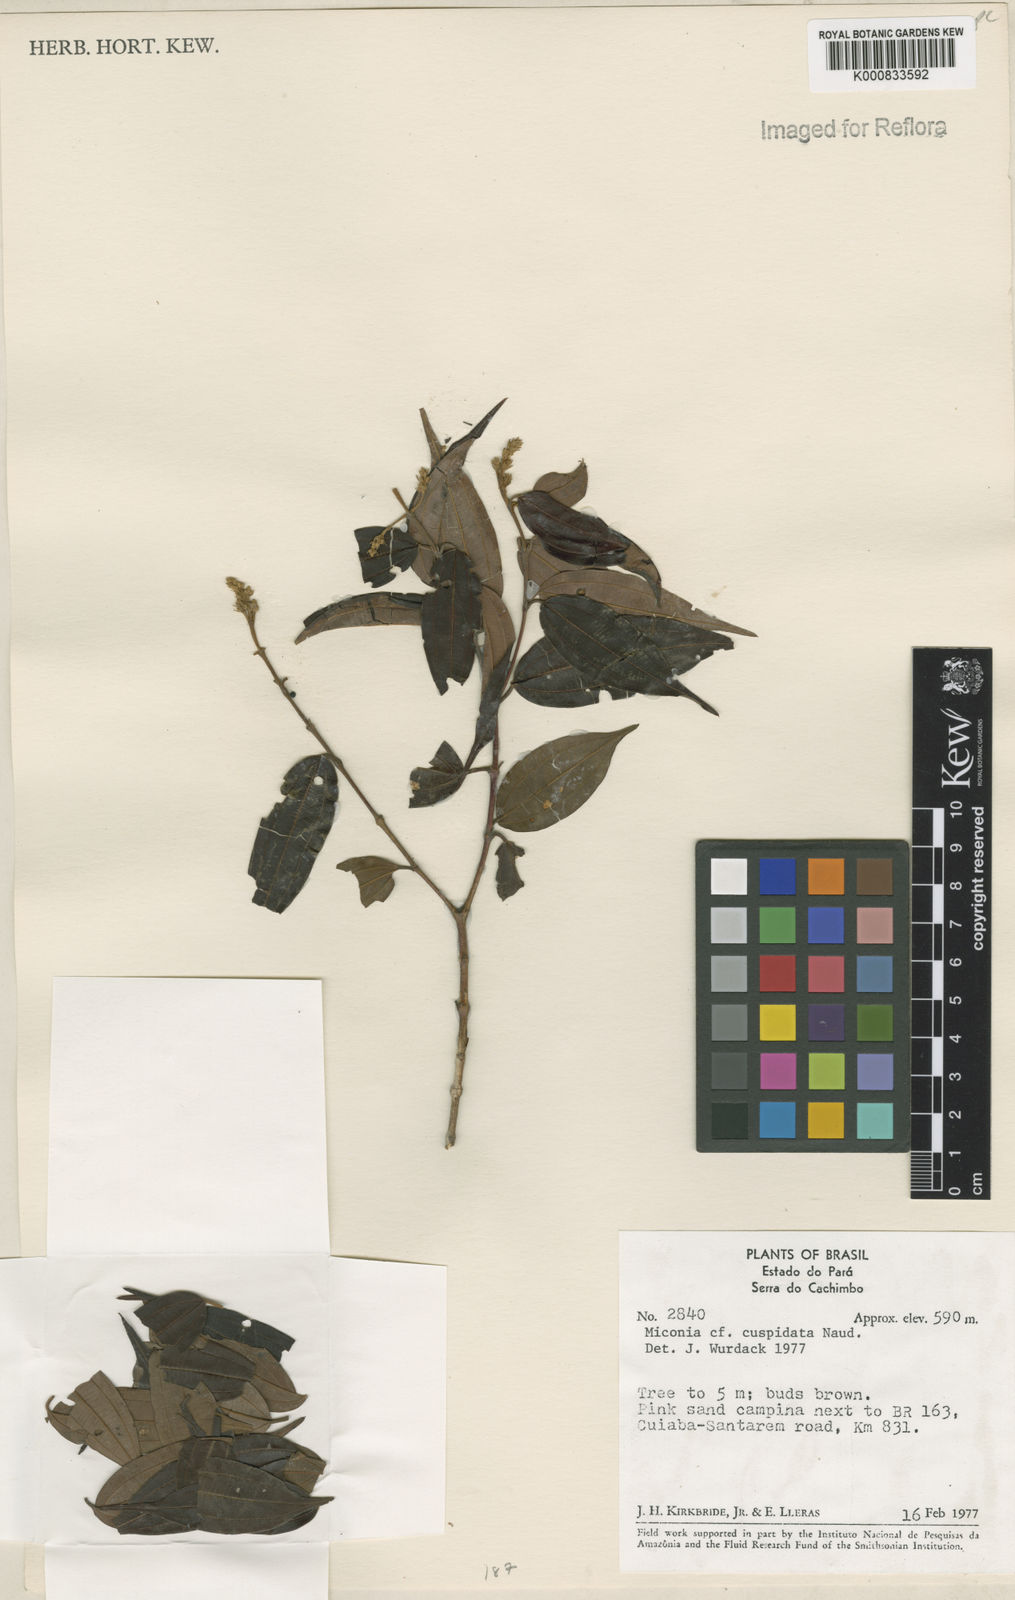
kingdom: Plantae
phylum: Tracheophyta
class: Magnoliopsida
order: Myrtales
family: Melastomataceae
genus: Miconia
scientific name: Miconia cuspidata
